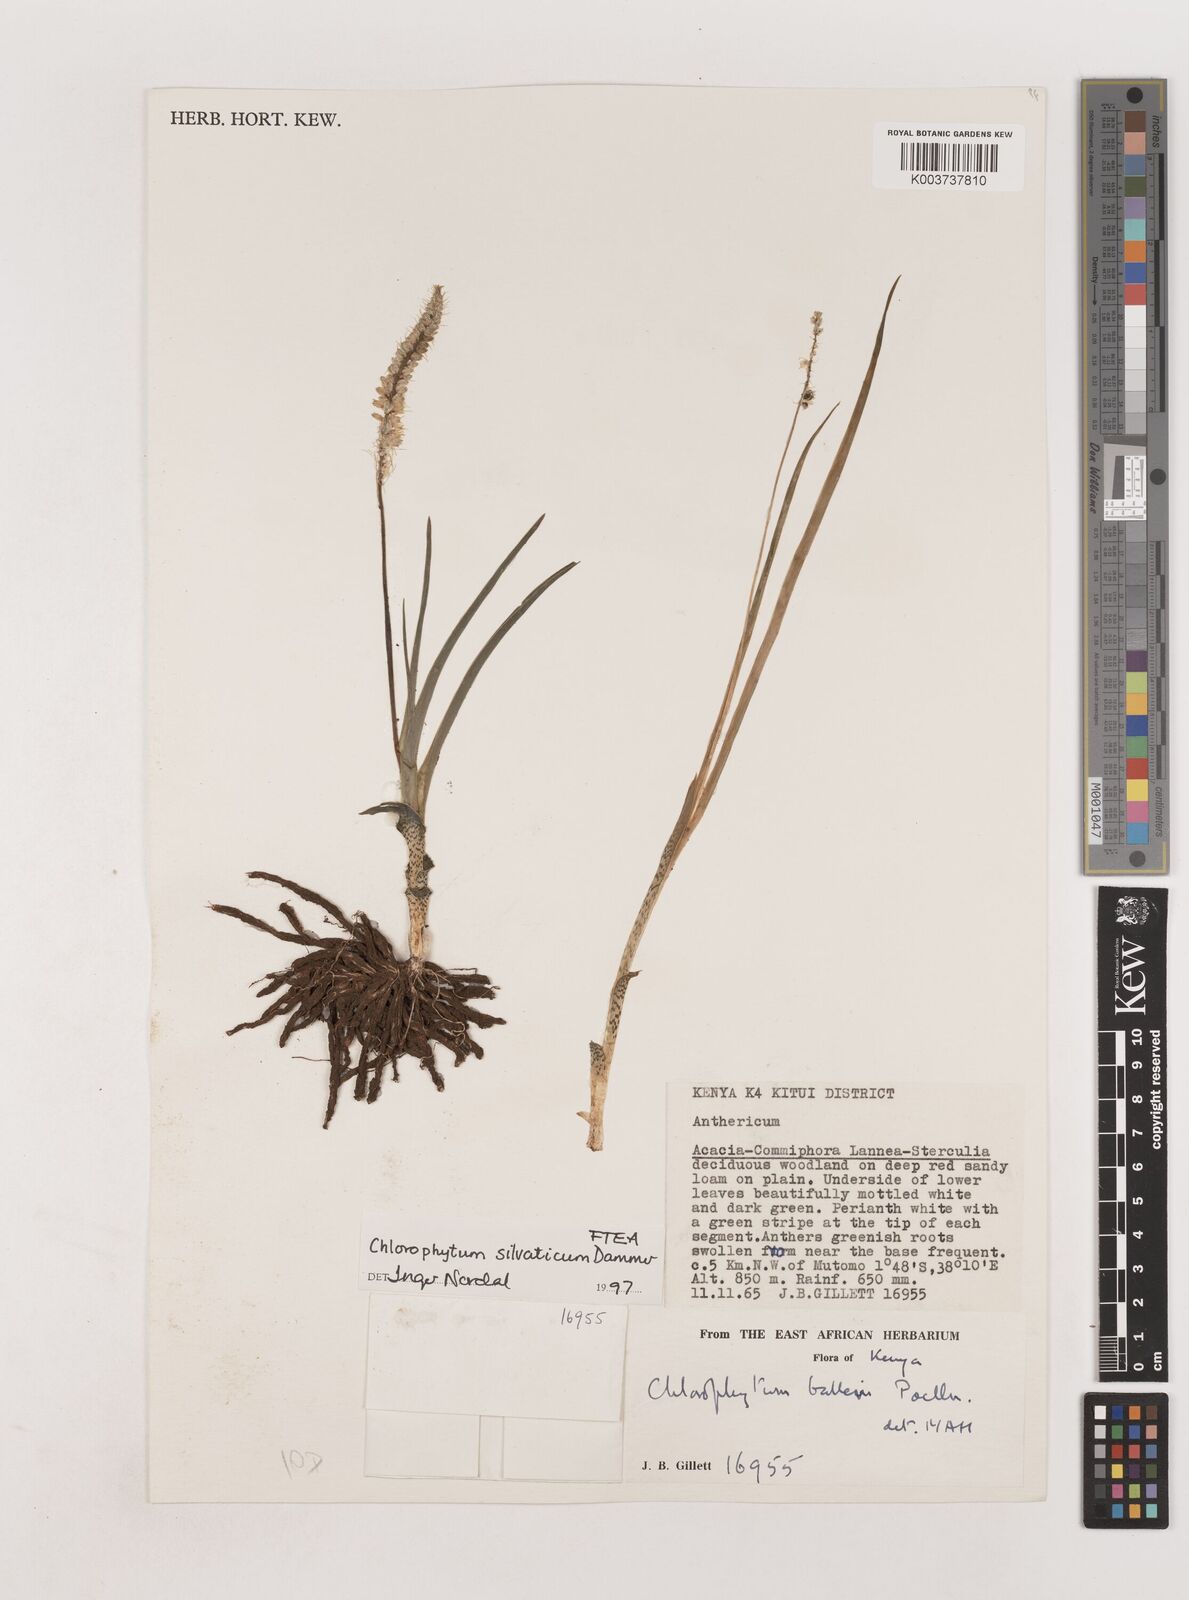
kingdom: Plantae
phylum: Tracheophyta
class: Liliopsida
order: Asparagales
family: Asparagaceae
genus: Chlorophytum
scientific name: Chlorophytum africanum
